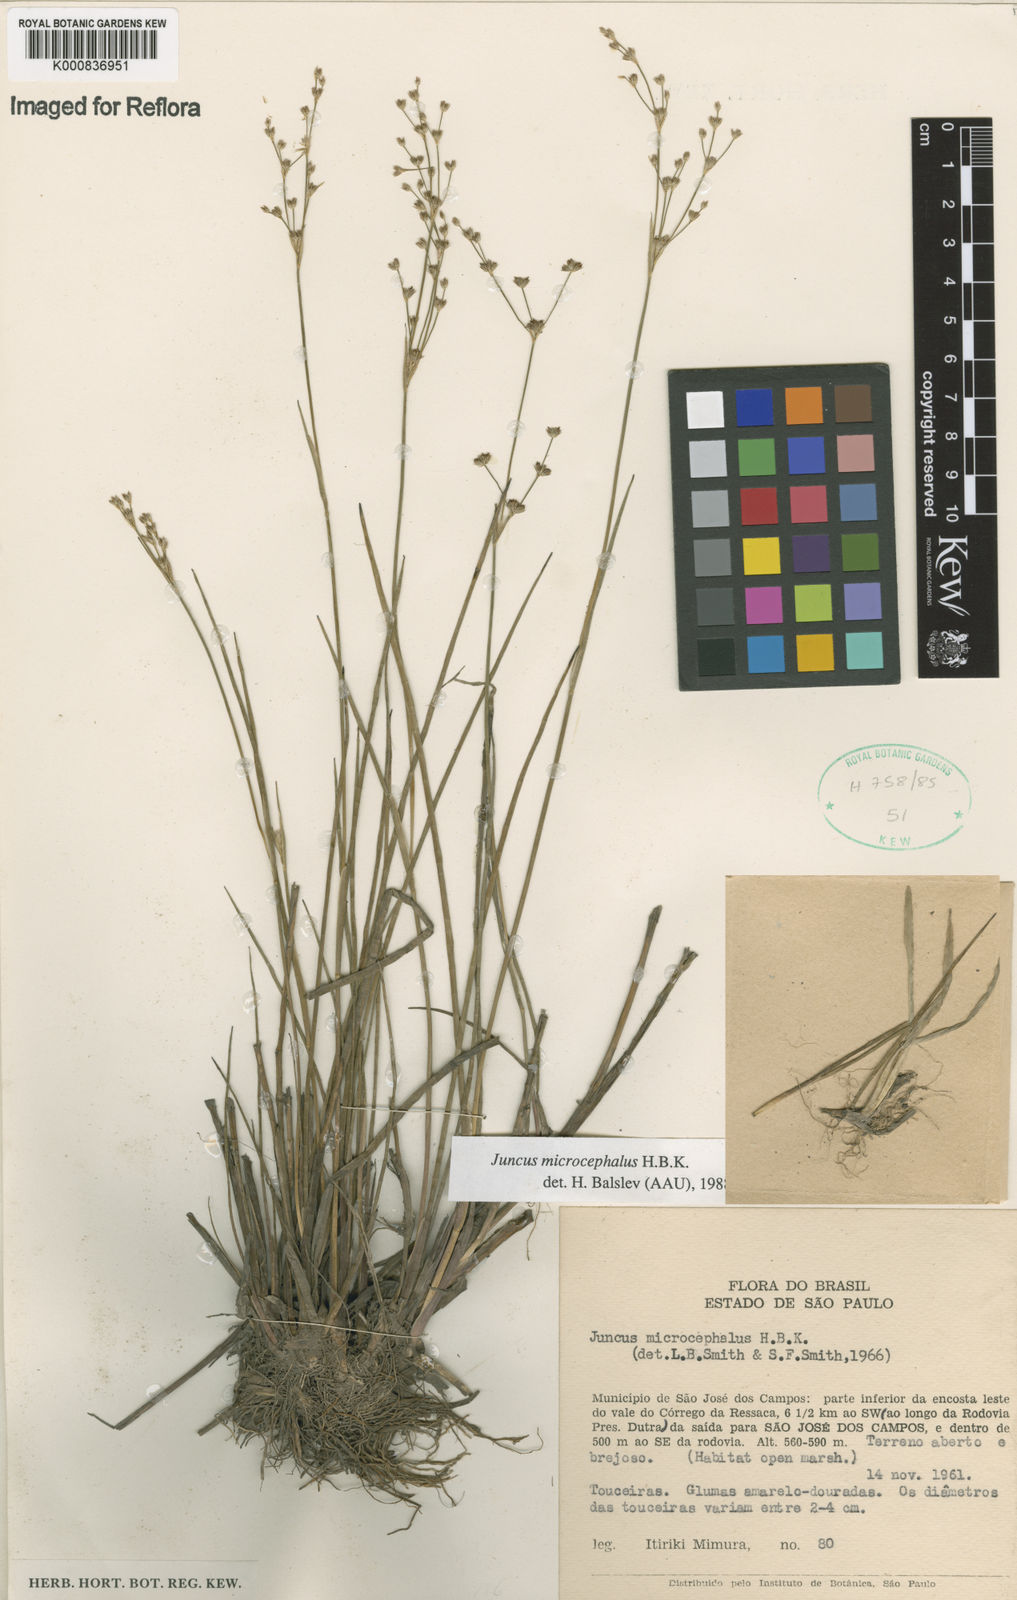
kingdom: Plantae
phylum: Tracheophyta
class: Liliopsida
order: Poales
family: Juncaceae
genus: Juncus
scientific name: Juncus microcephalus
